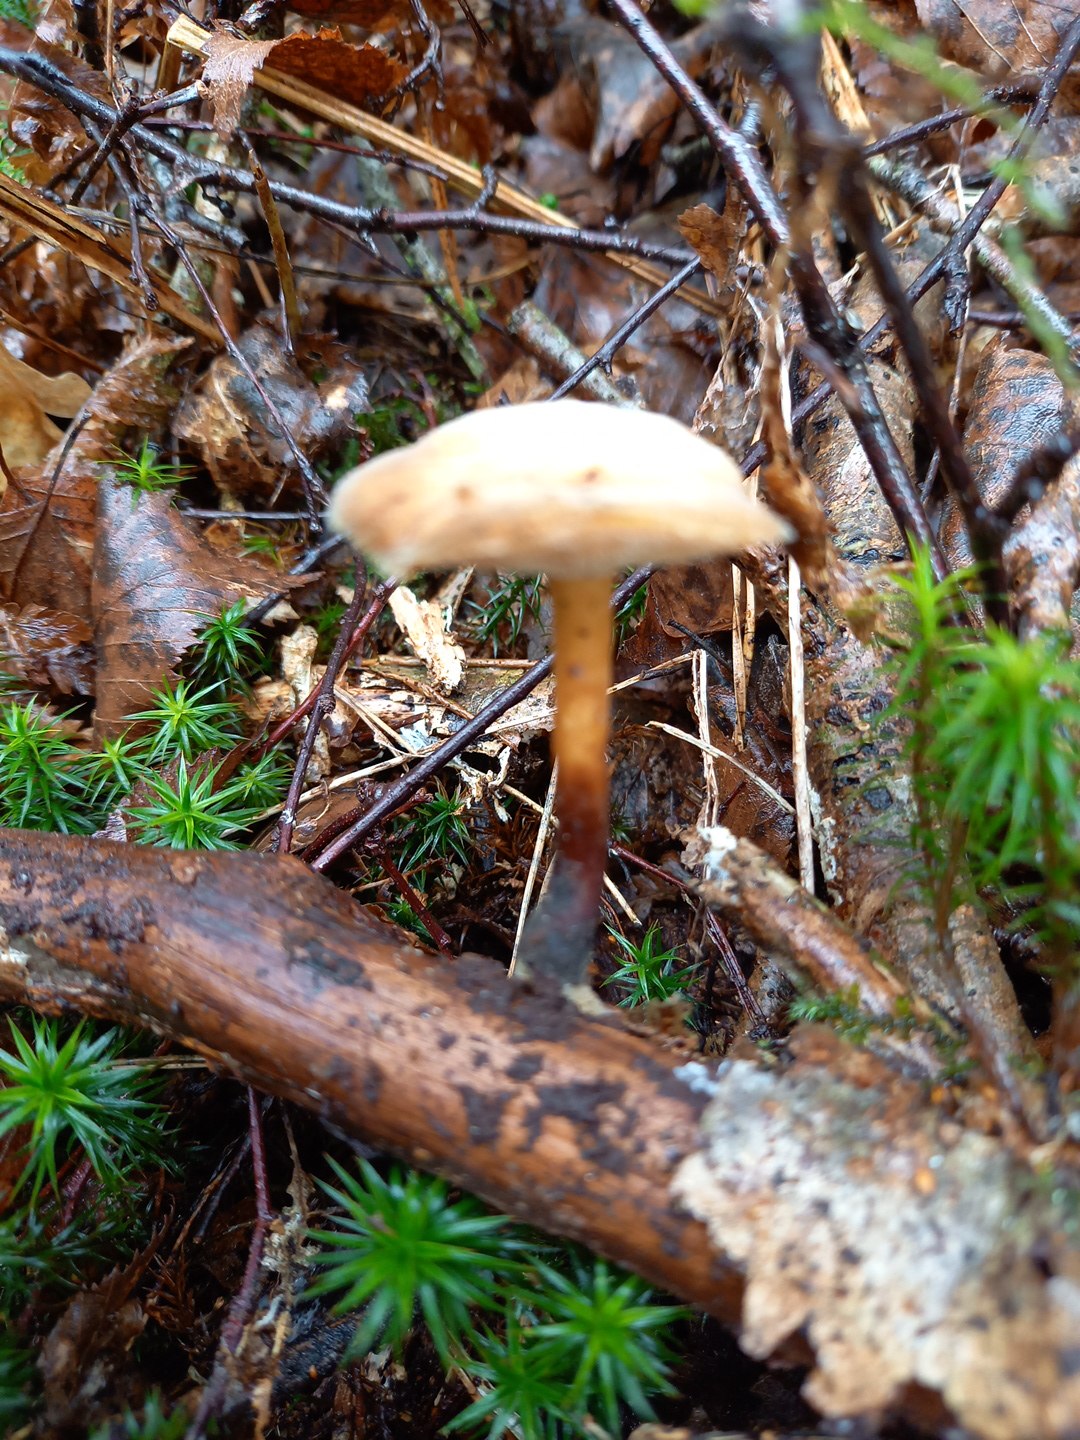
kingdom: Fungi
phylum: Basidiomycota
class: Agaricomycetes
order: Polyporales
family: Polyporaceae
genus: Lentinus
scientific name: Lentinus brumalis
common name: vinter-stilkporesvamp
